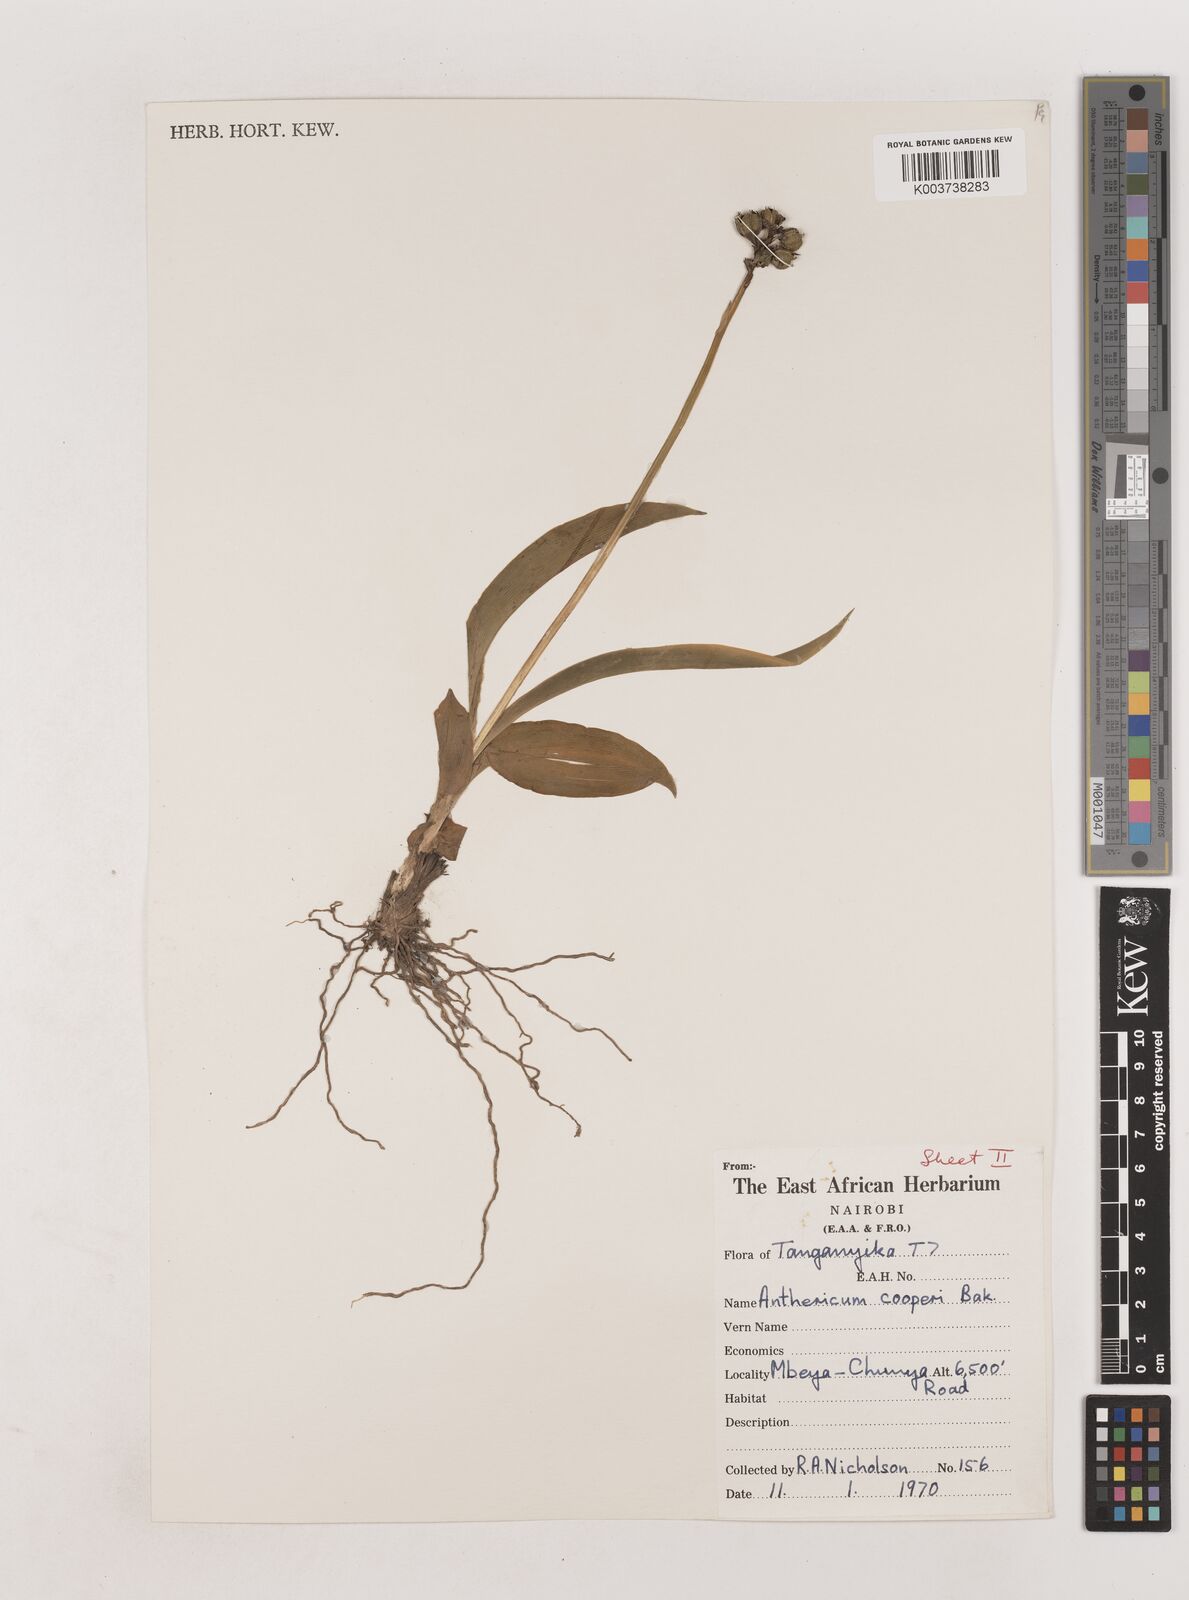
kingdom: Plantae
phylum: Tracheophyta
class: Liliopsida
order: Asparagales
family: Asparagaceae
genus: Chlorophytum
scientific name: Chlorophytum sphacelatum
